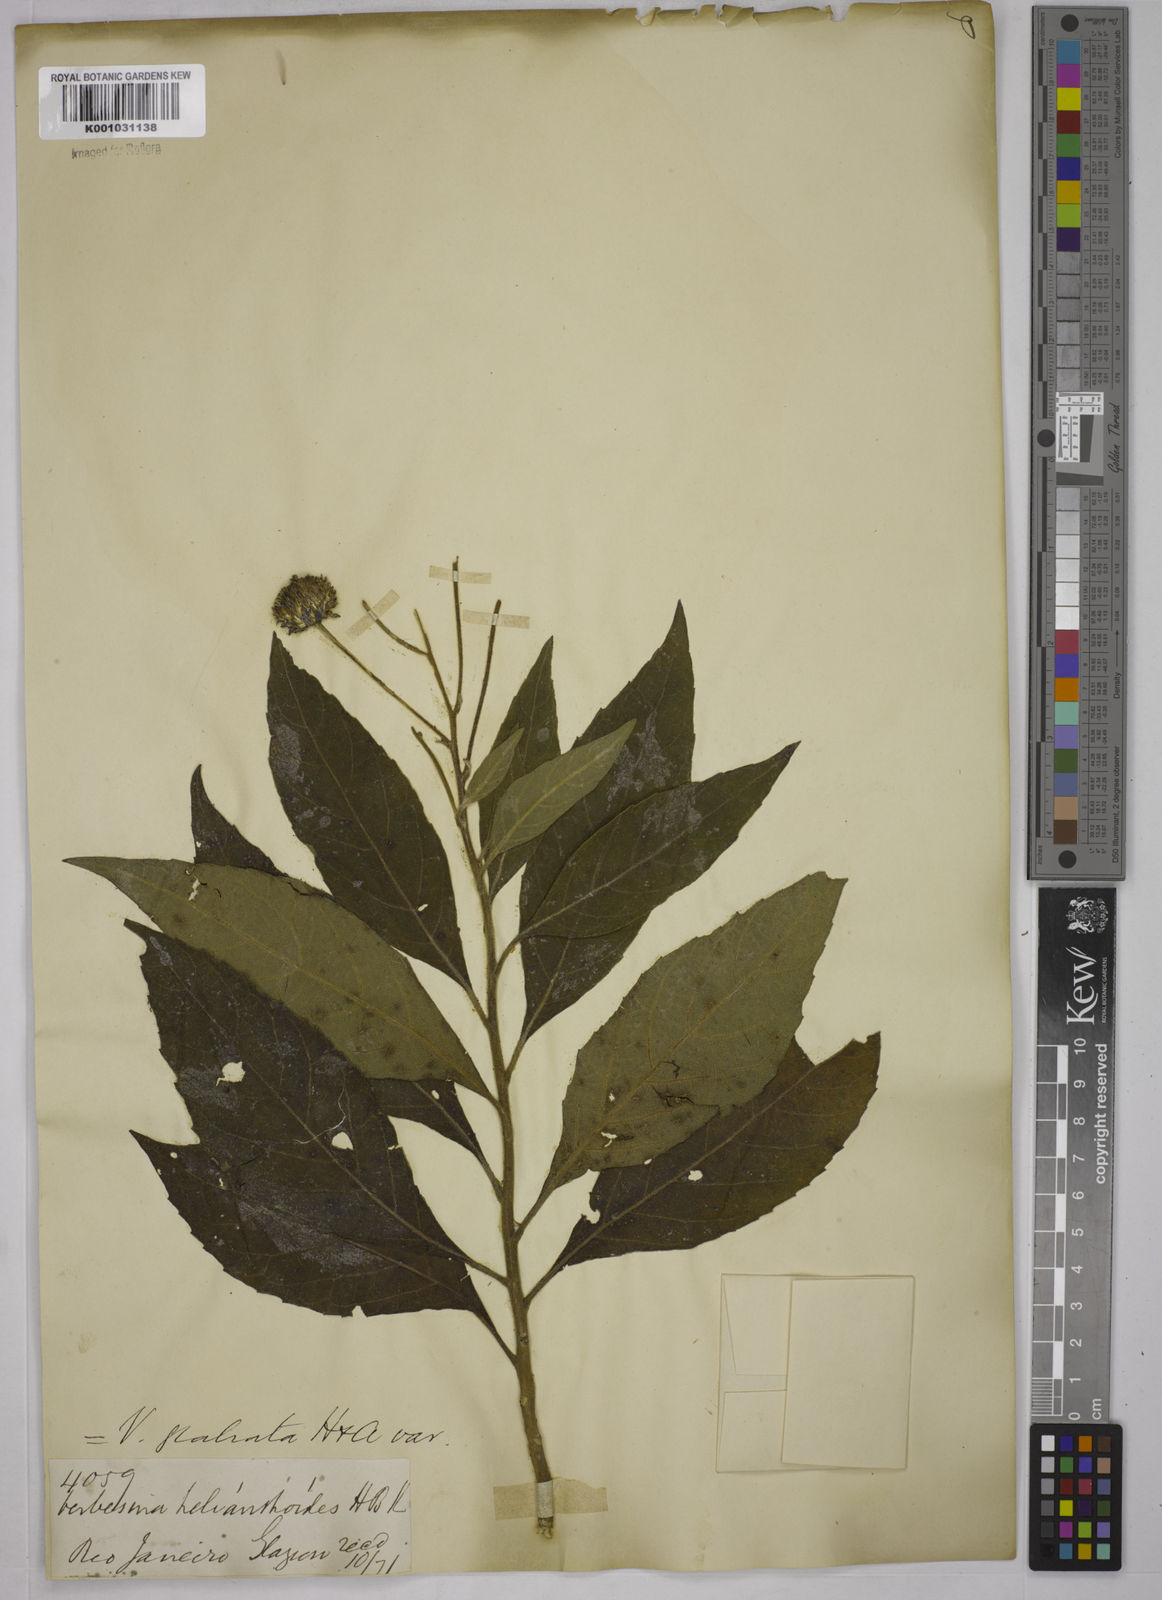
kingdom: Plantae
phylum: Tracheophyta
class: Magnoliopsida
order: Asterales
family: Asteraceae
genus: Verbesina
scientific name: Verbesina glabrata
